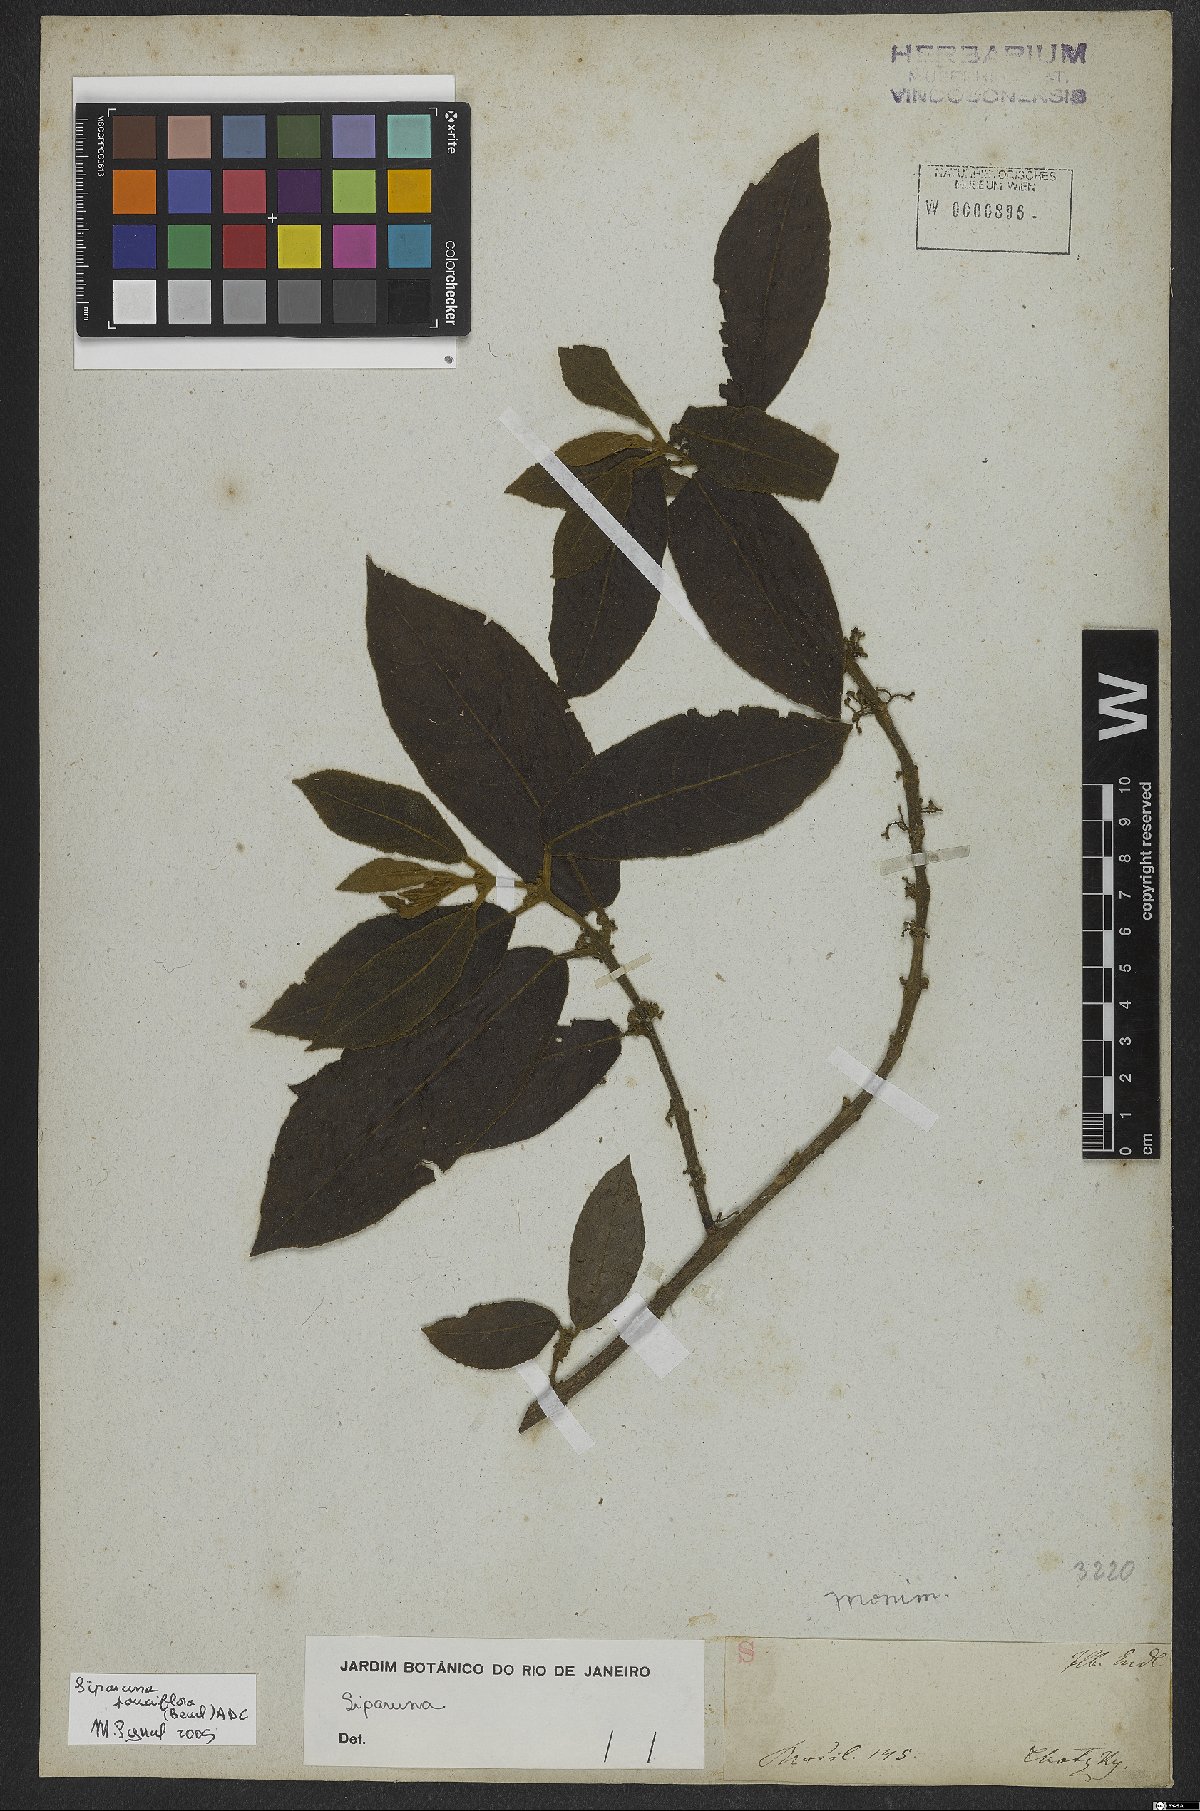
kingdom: Plantae
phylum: Tracheophyta
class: Magnoliopsida
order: Laurales
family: Siparunaceae
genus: Siparuna
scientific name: Siparuna pauciflora
